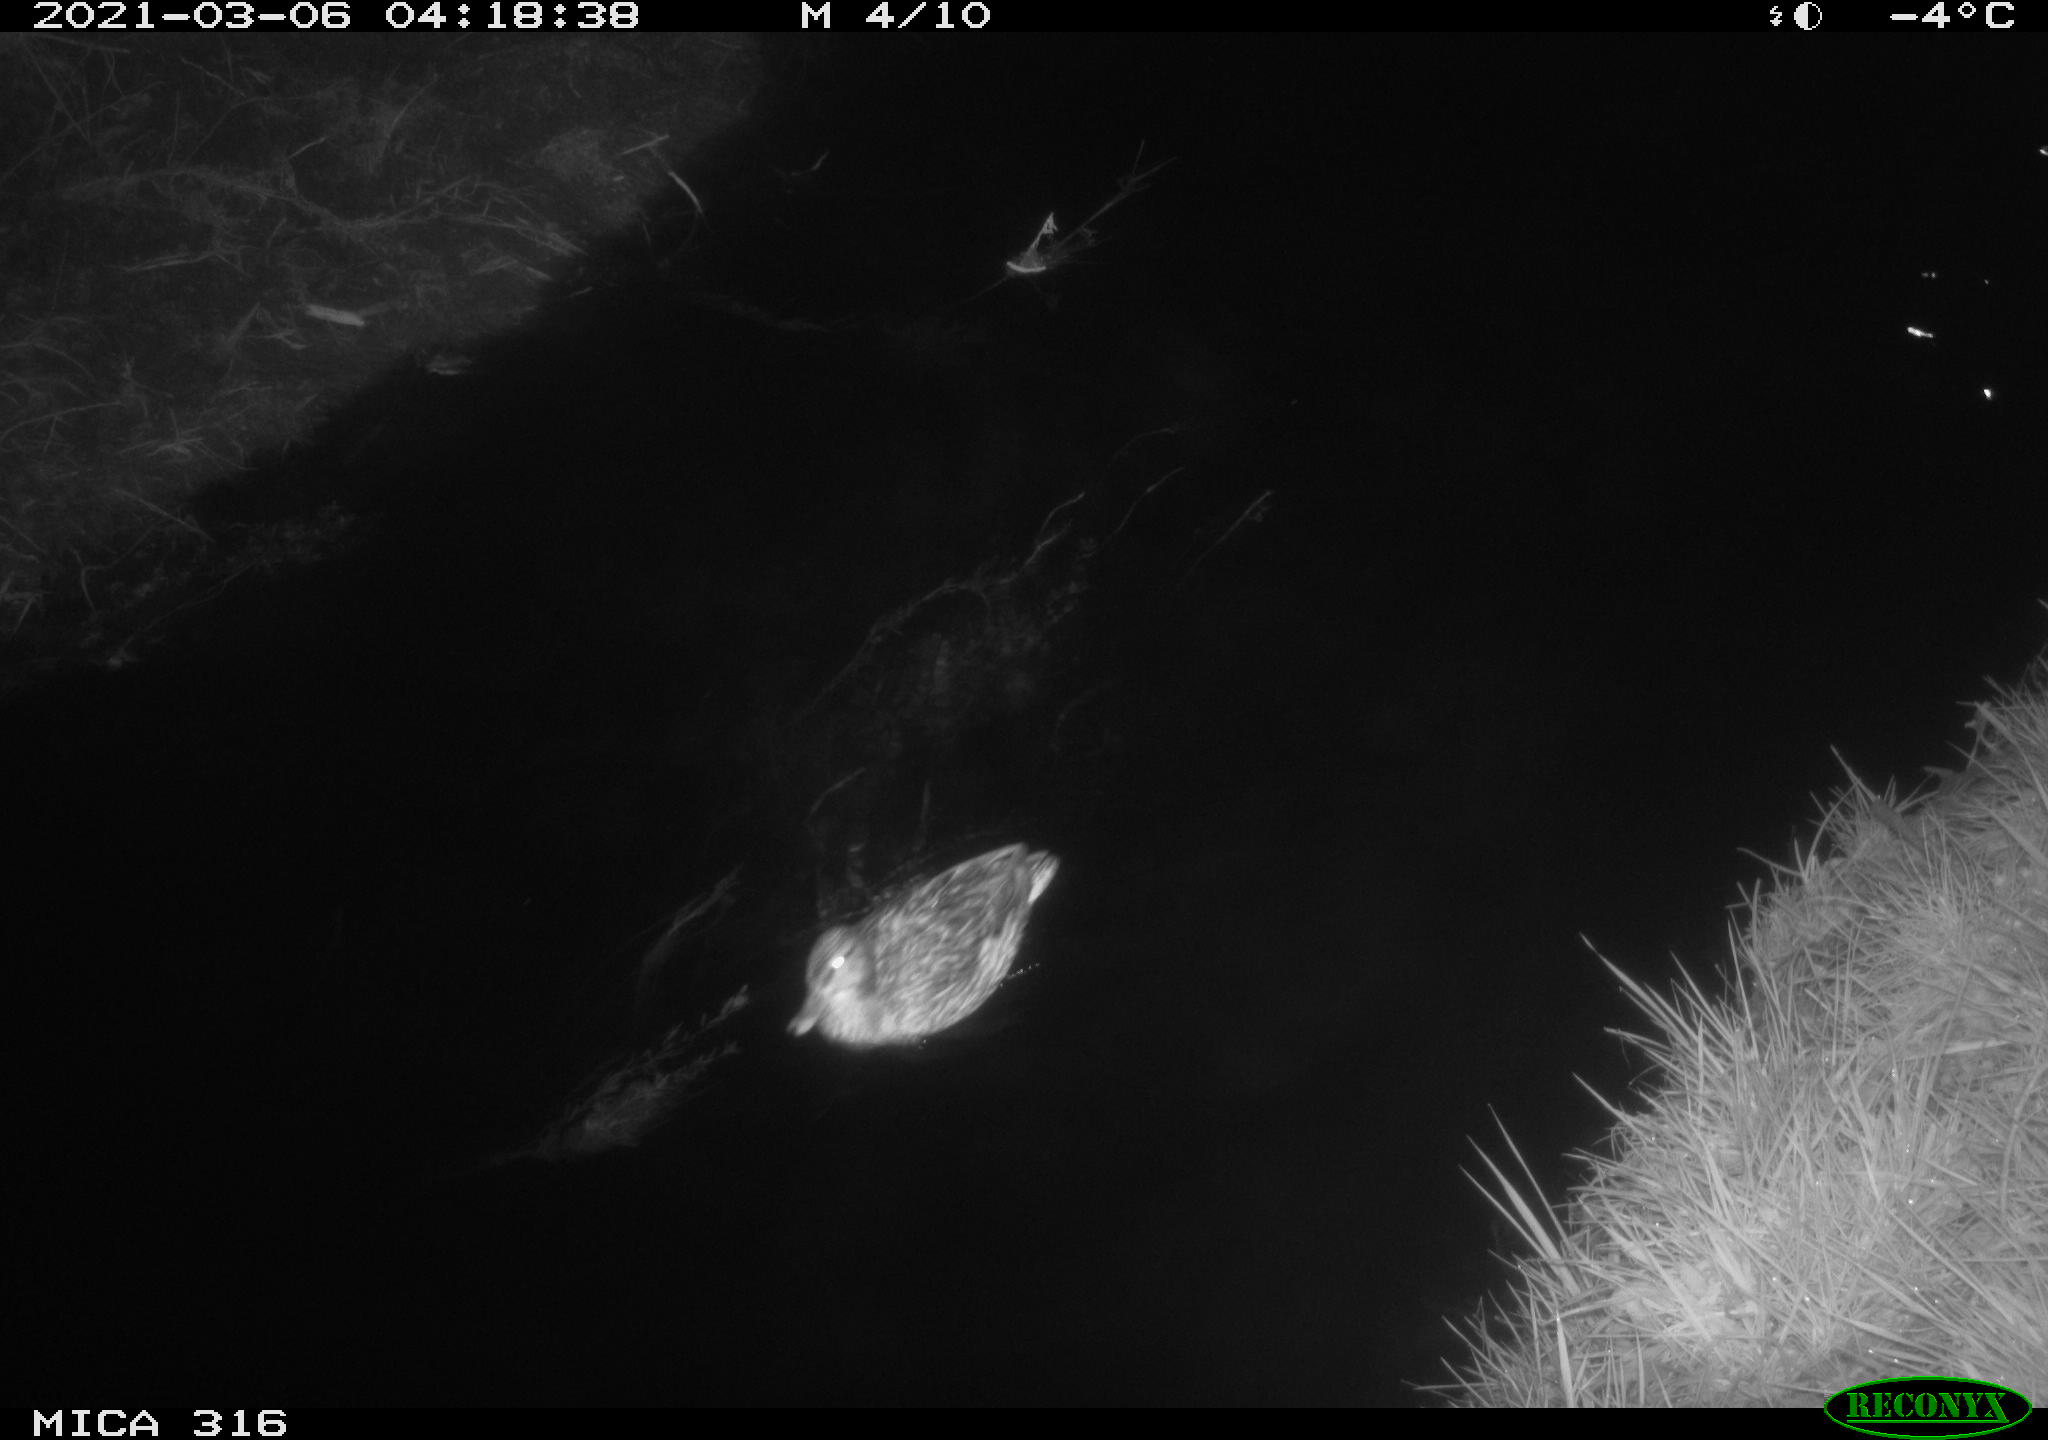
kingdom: Animalia
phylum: Chordata
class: Aves
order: Anseriformes
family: Anatidae
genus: Anas
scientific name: Anas platyrhynchos
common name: Mallard
